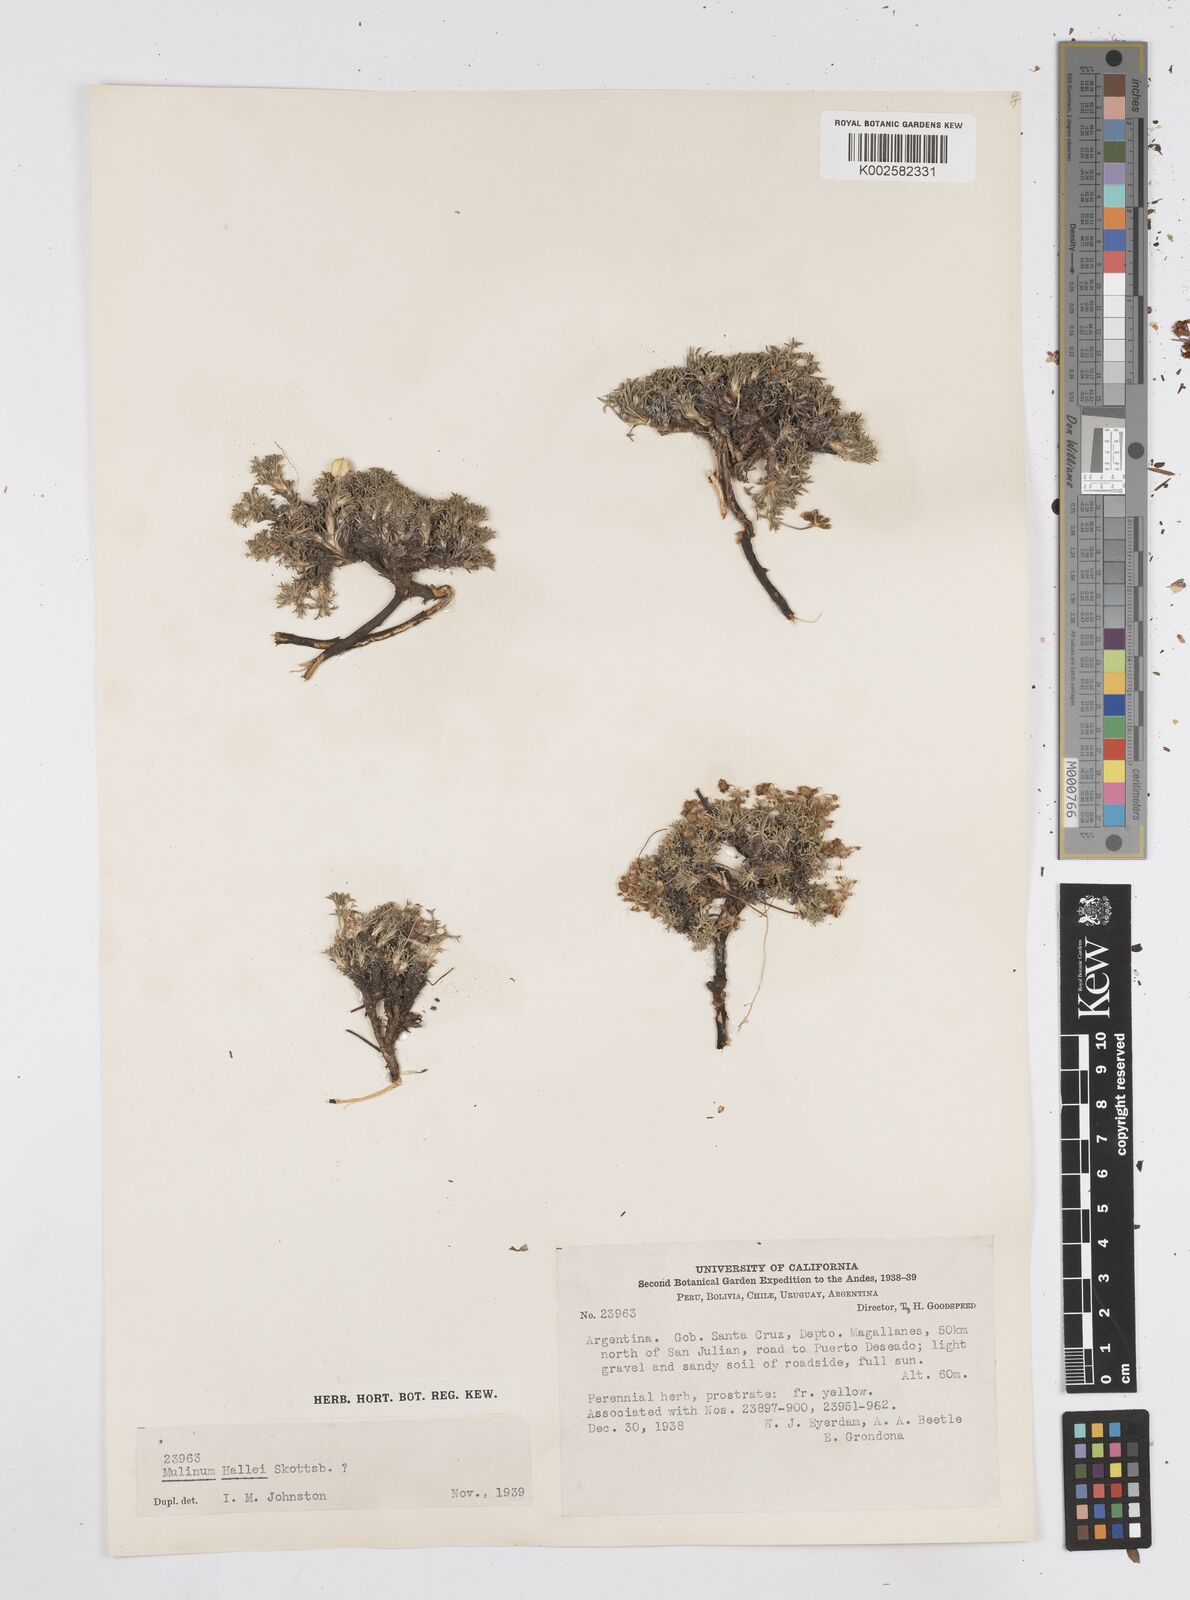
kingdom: Plantae
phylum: Tracheophyta
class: Magnoliopsida
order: Apiales
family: Apiaceae
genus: Azorella
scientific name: Azorella hallei
